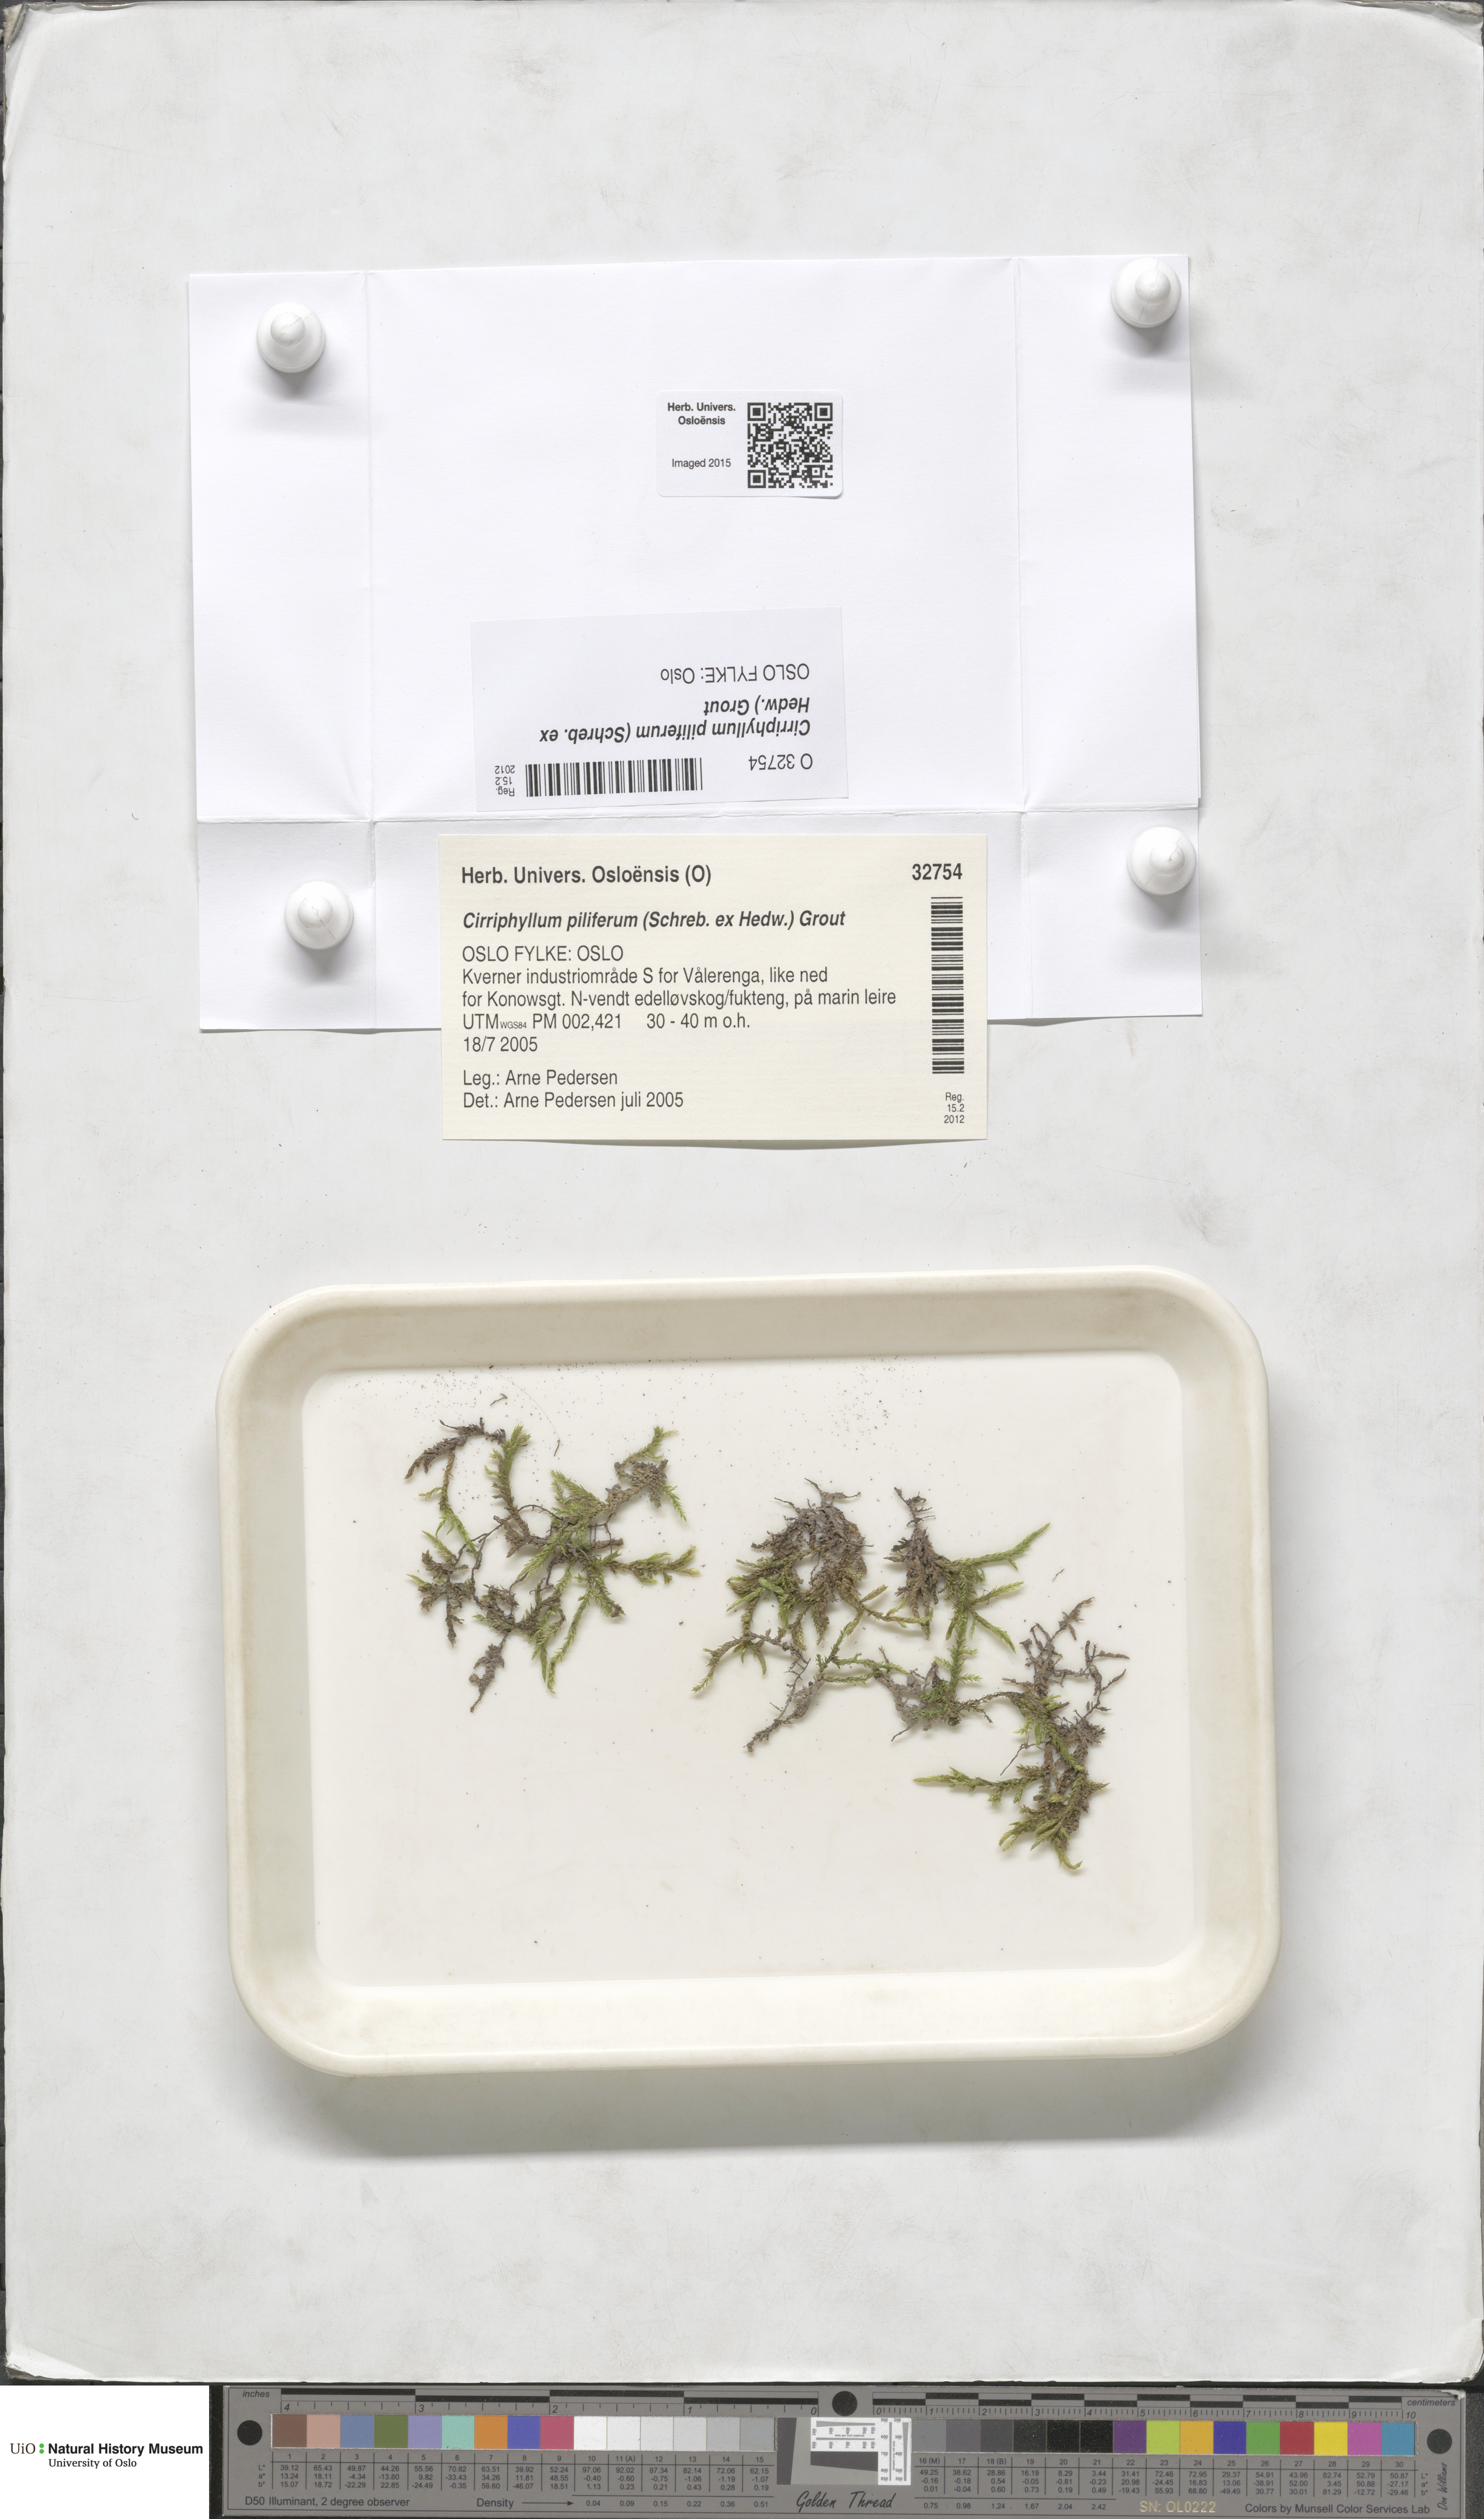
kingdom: Plantae
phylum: Bryophyta
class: Bryopsida
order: Hypnales
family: Brachytheciaceae
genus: Cirriphyllum
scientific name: Cirriphyllum piliferum
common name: Hair-pointed moss
